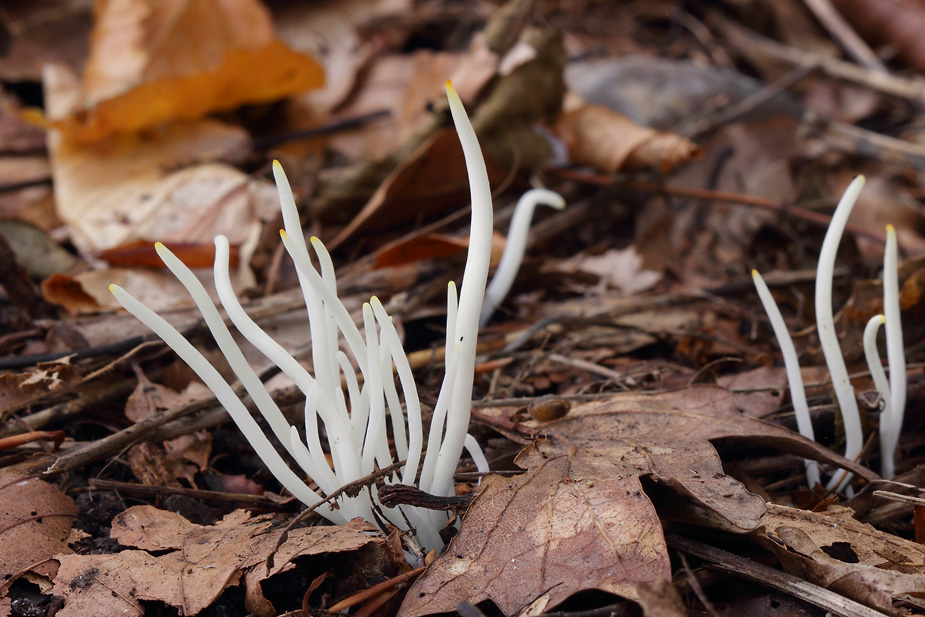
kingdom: Fungi
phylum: Basidiomycota
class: Agaricomycetes
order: Agaricales
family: Clavariaceae
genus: Clavaria
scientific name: Clavaria fragilis
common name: bugtet køllesvamp
